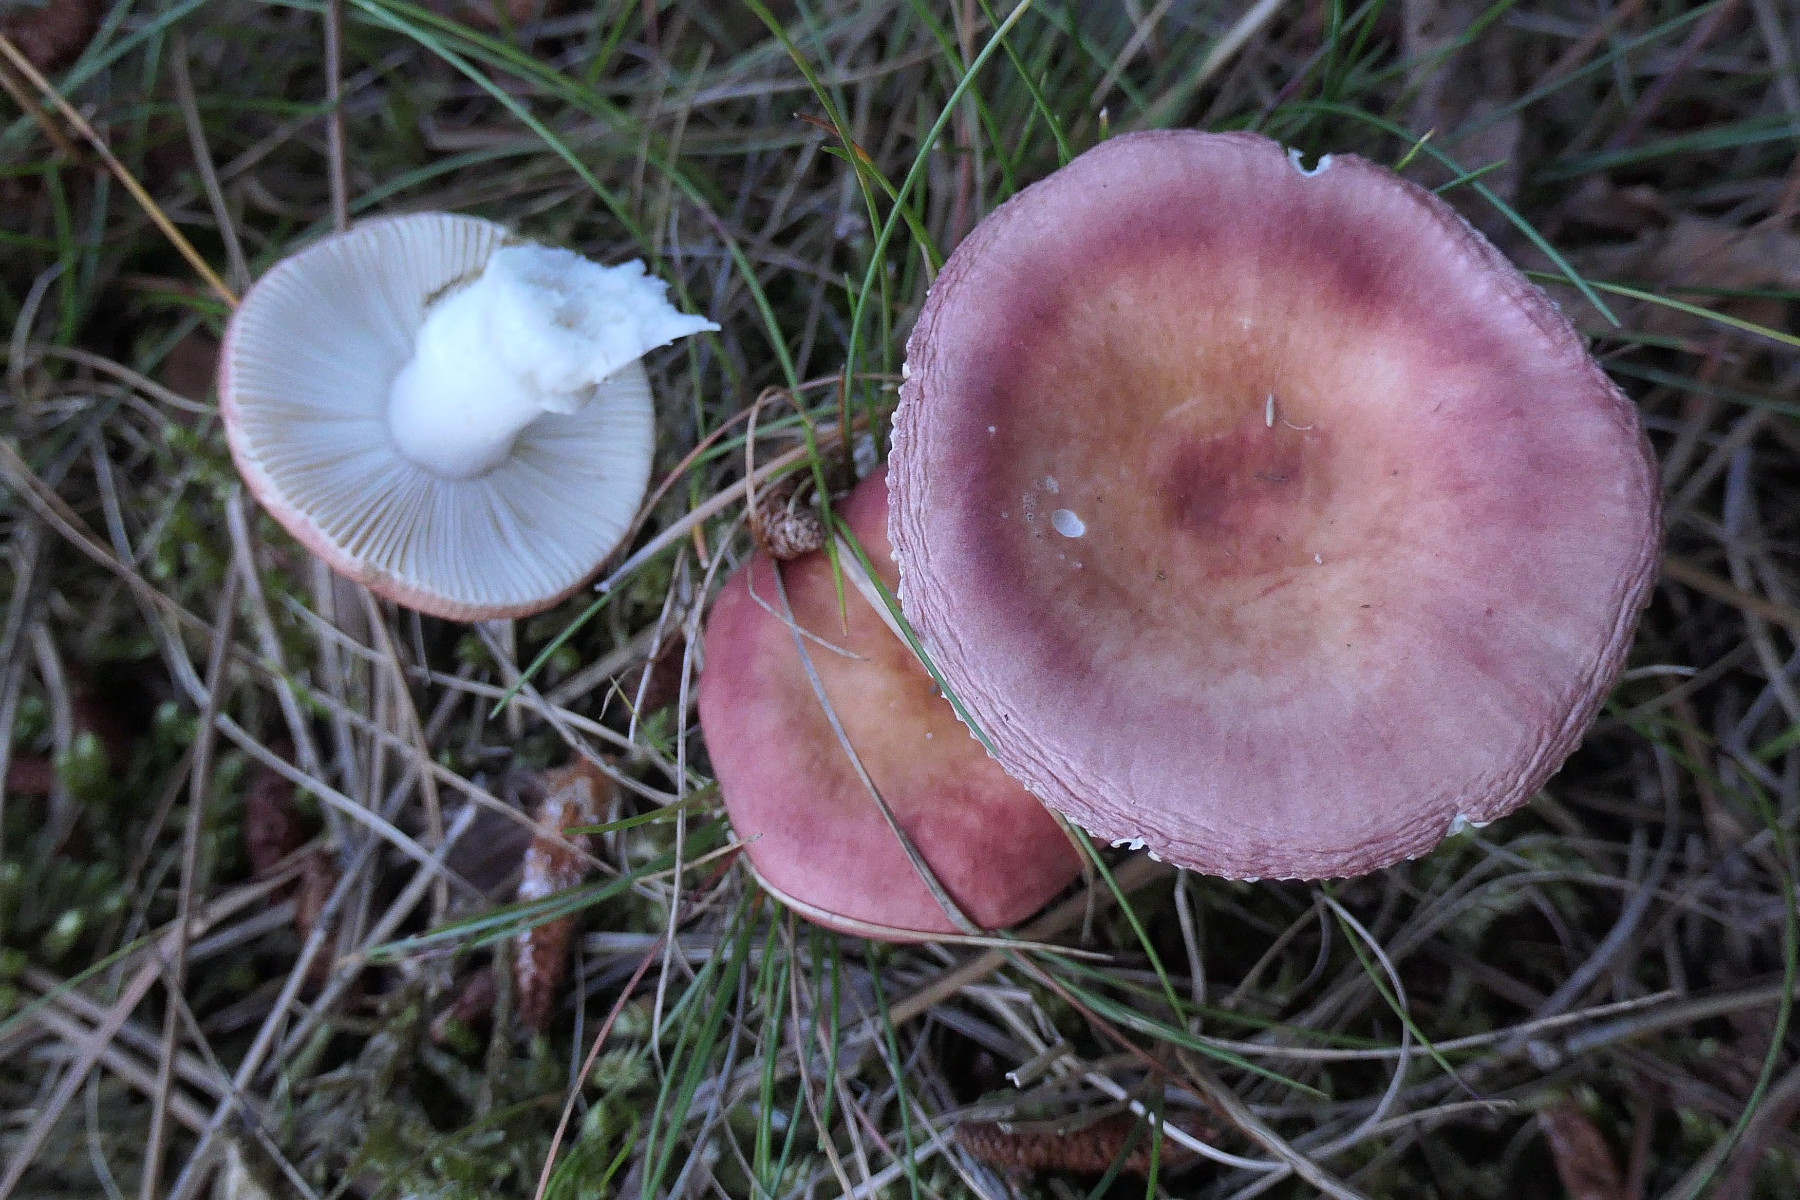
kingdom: Fungi
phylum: Basidiomycota
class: Agaricomycetes
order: Russulales
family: Russulaceae
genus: Russula
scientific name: Russula velenovskyi
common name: orangerød skørhat
